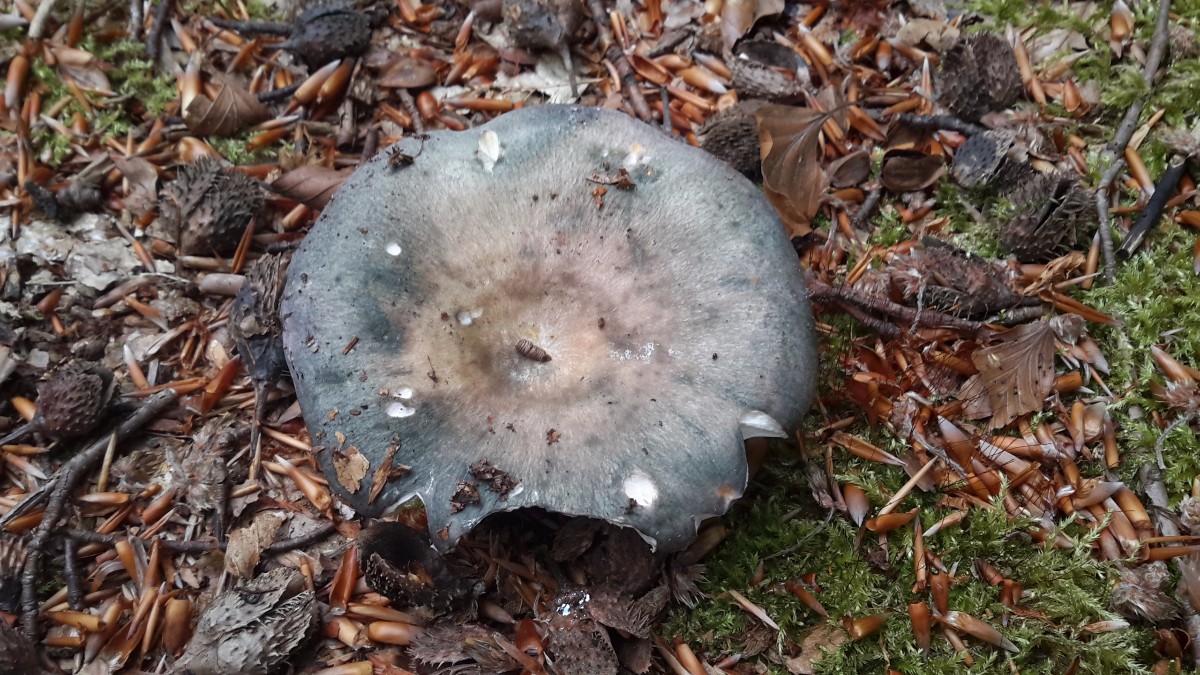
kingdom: Fungi
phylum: Basidiomycota
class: Agaricomycetes
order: Russulales
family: Russulaceae
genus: Russula
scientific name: Russula cyanoxantha
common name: broget skørhat
